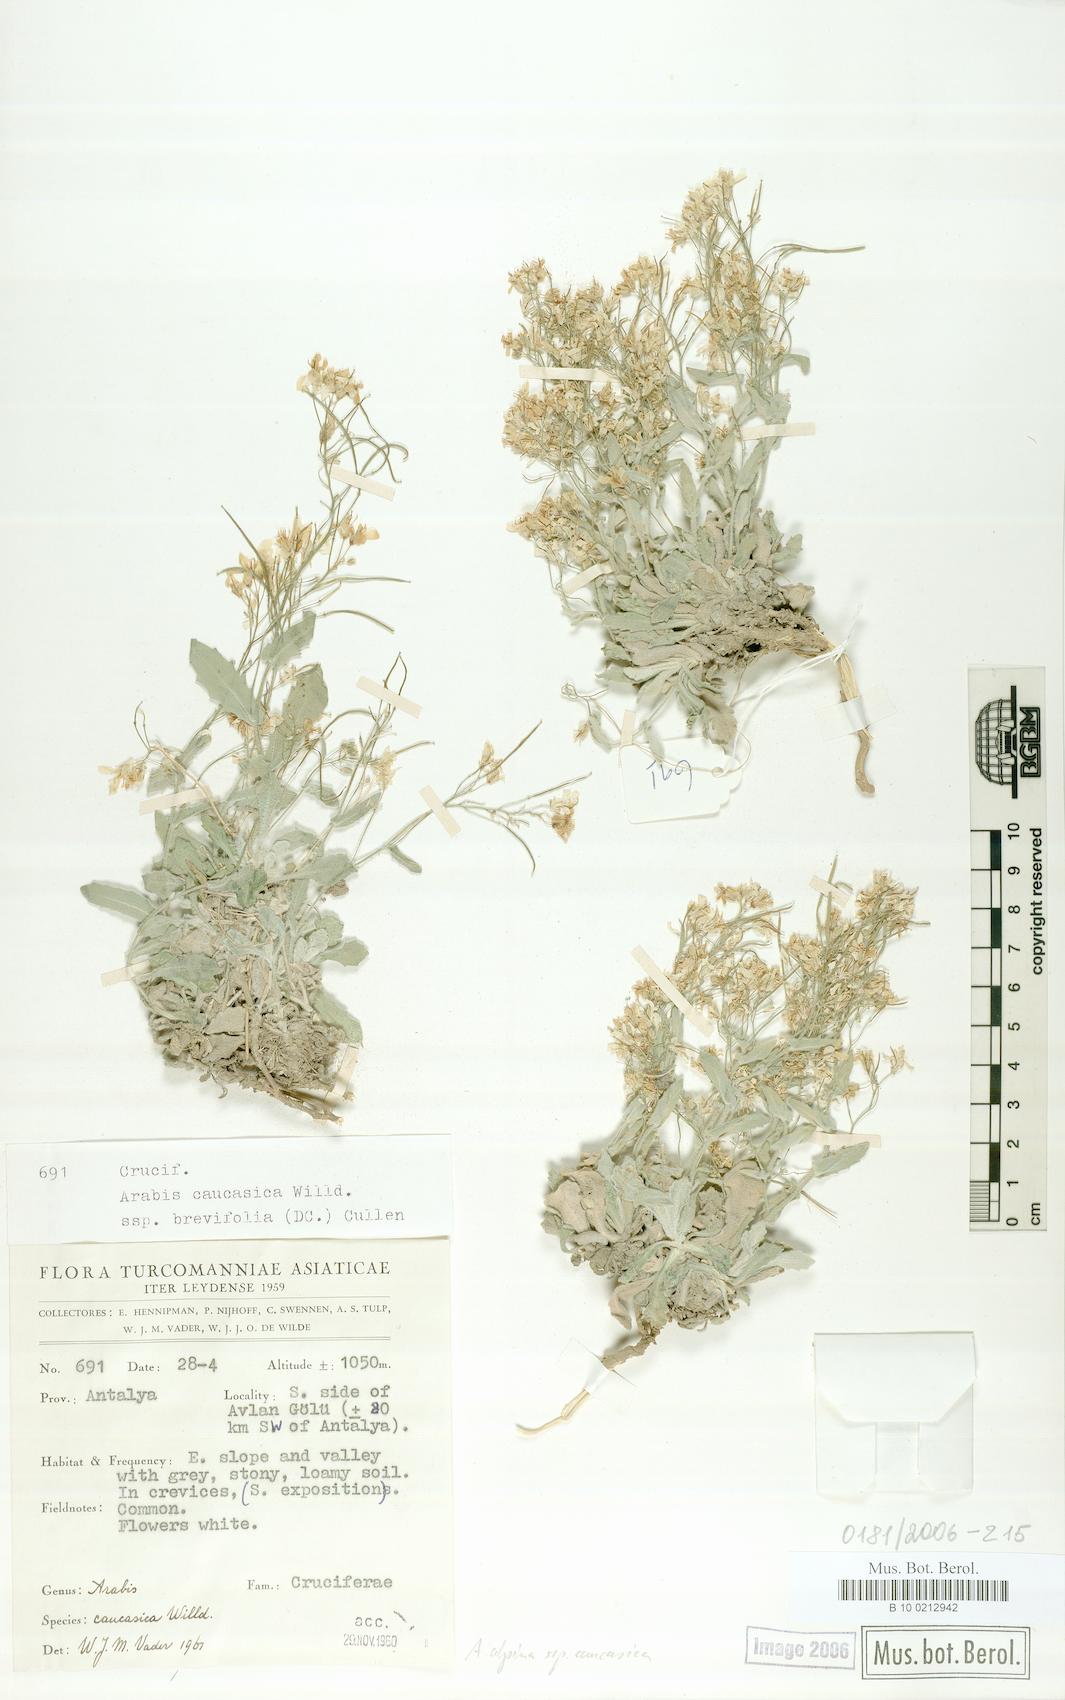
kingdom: Plantae
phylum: Tracheophyta
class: Magnoliopsida
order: Brassicales
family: Brassicaceae
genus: Arabis
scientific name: Arabis caucasica
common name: Gray rockcress
